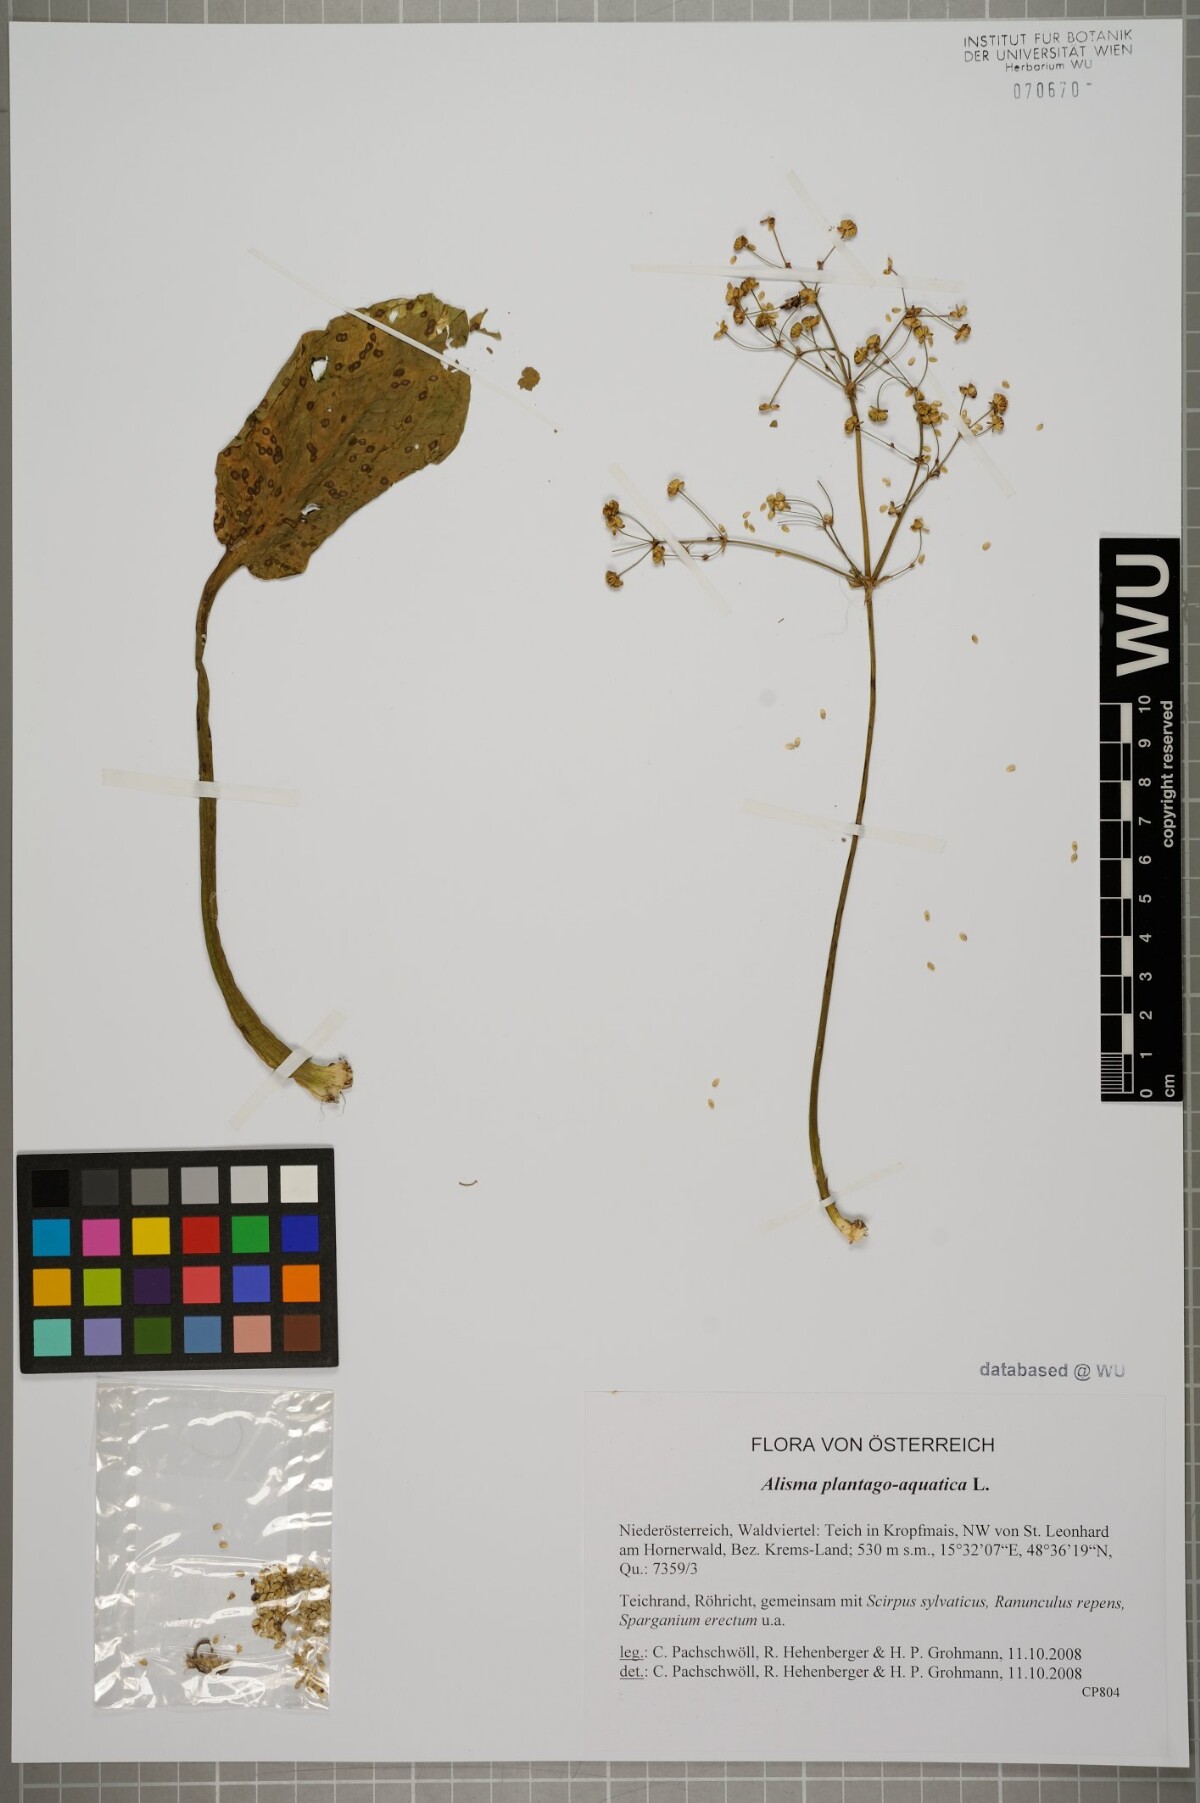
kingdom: Plantae
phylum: Tracheophyta
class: Liliopsida
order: Alismatales
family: Alismataceae
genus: Alisma
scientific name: Alisma plantago-aquatica
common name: Water-plantain
